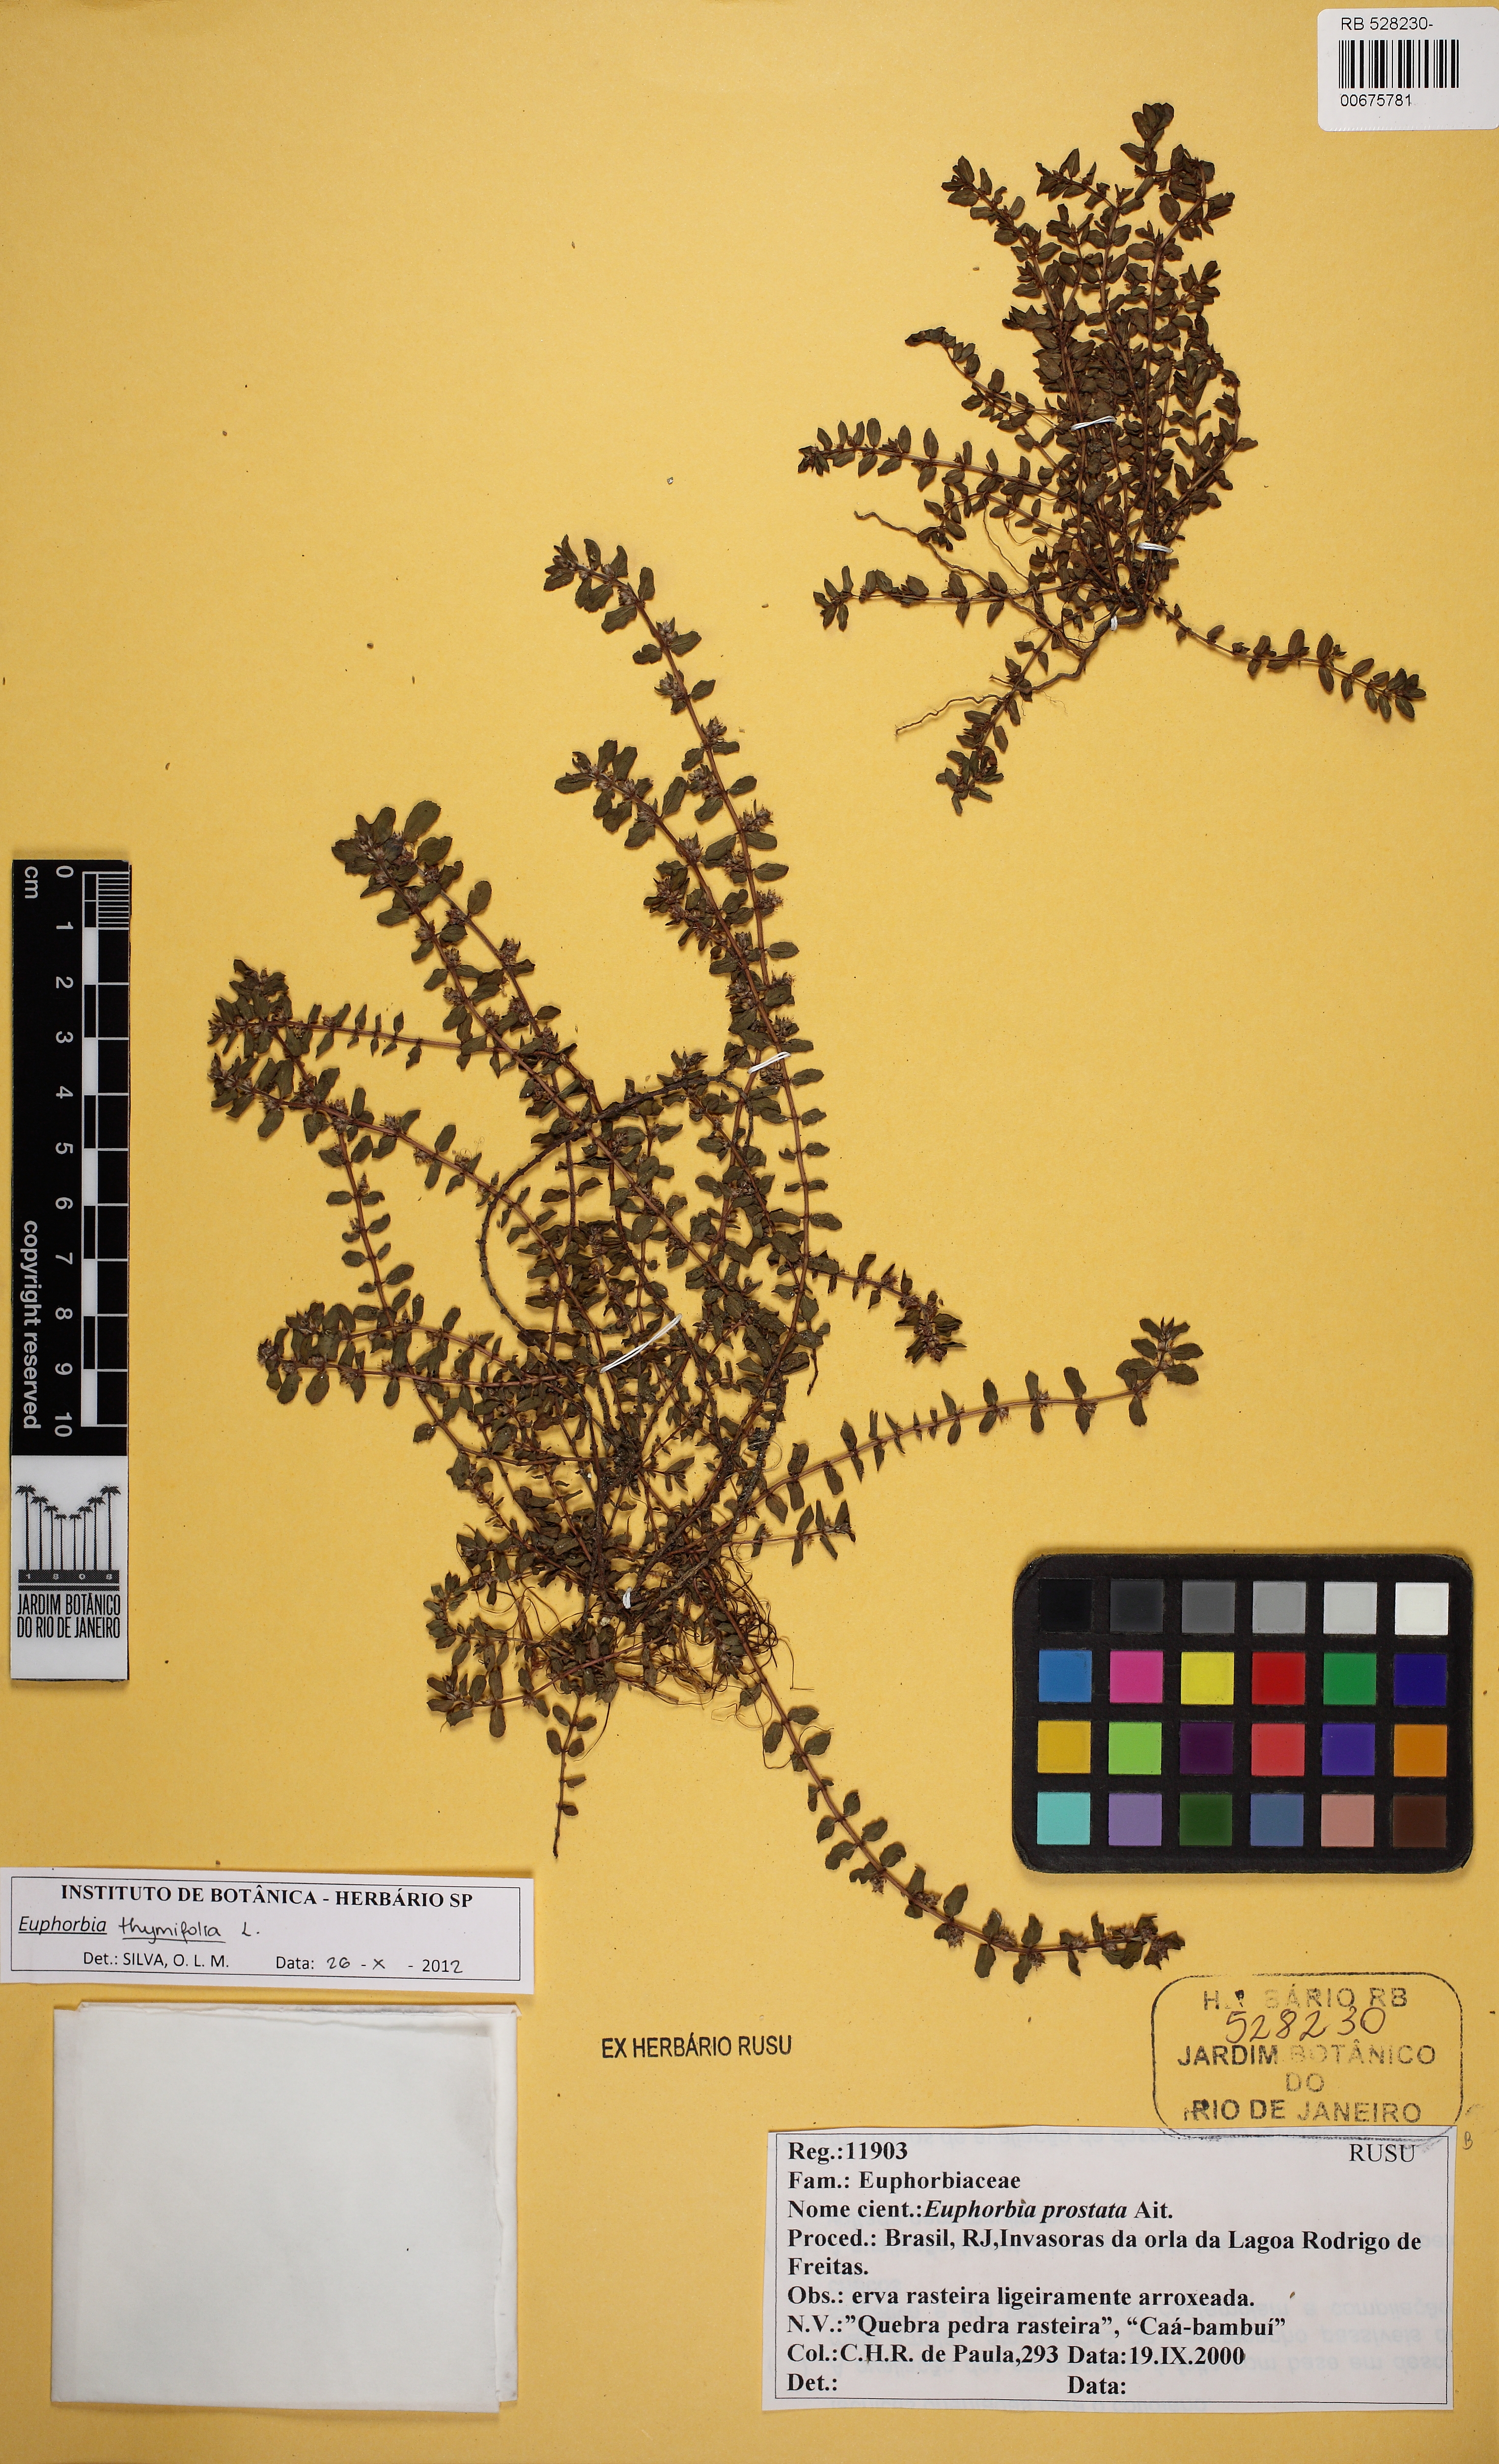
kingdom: Plantae
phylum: Tracheophyta
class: Magnoliopsida
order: Malpighiales
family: Euphorbiaceae
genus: Euphorbia
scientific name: Euphorbia thymifolia
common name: Gulf sandmat
